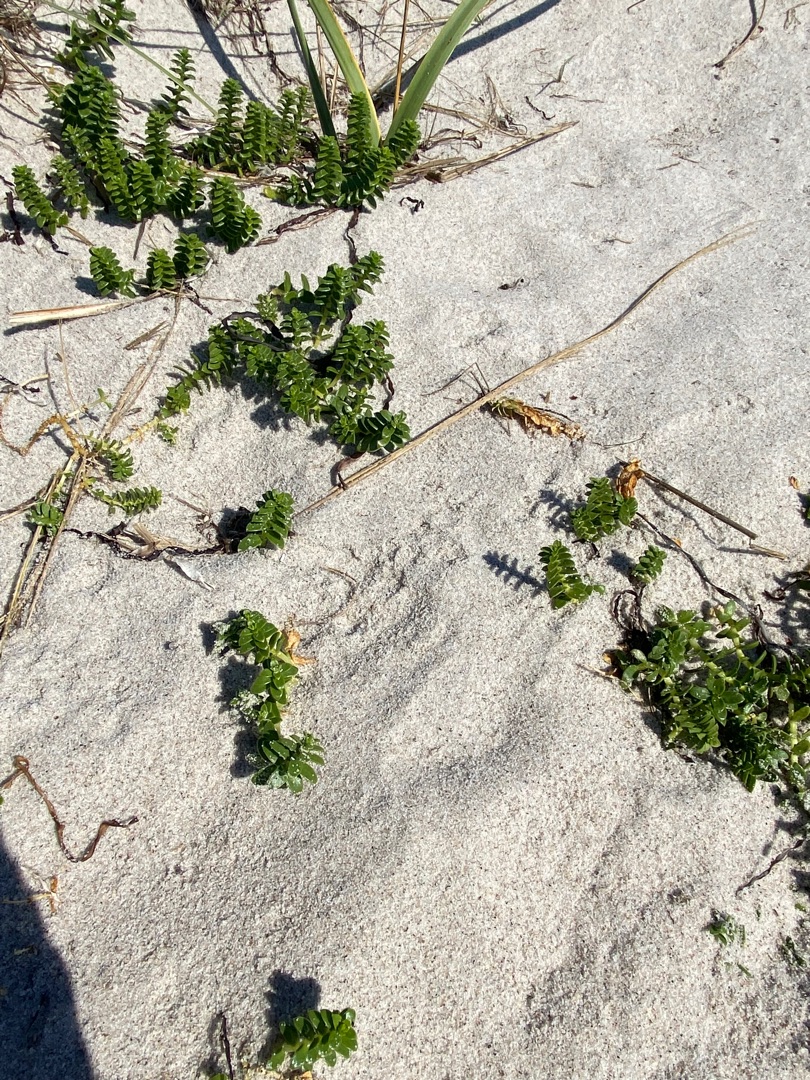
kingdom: Plantae
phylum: Tracheophyta
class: Magnoliopsida
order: Caryophyllales
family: Caryophyllaceae
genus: Honckenya
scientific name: Honckenya peploides
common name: Strandarve
